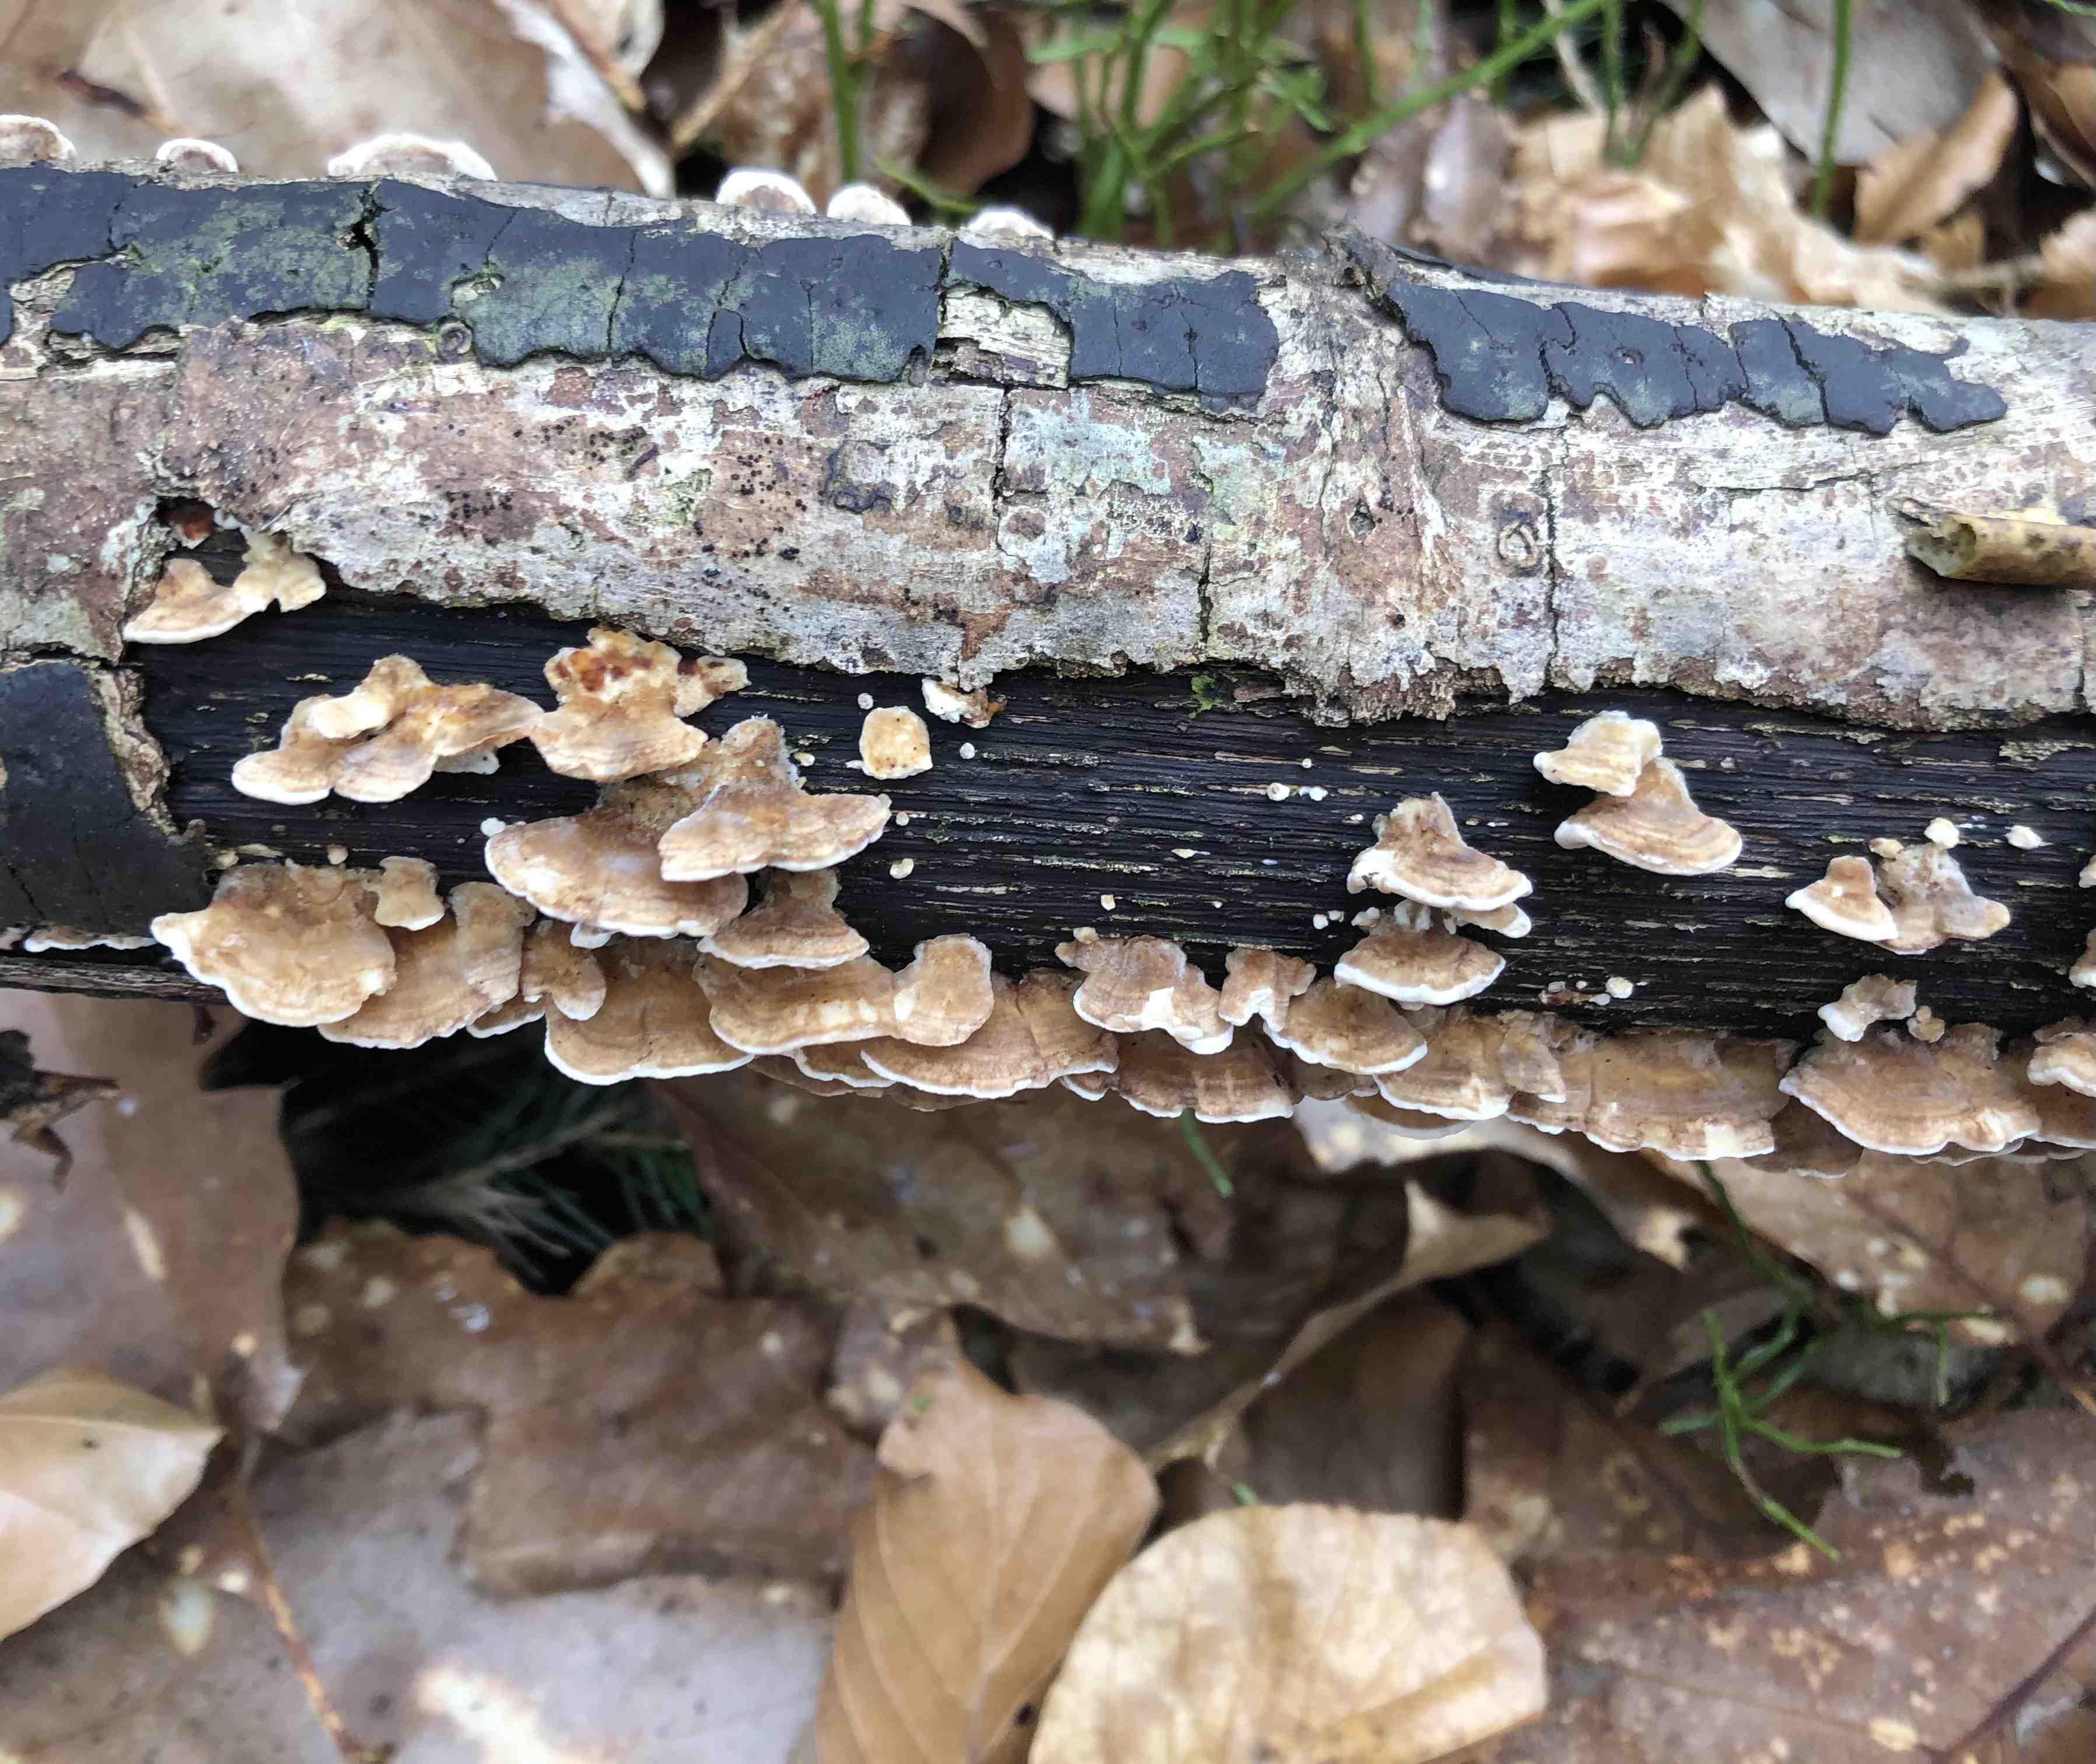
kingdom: Fungi
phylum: Basidiomycota
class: Agaricomycetes
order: Polyporales
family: Polyporaceae
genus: Trametes
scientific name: Trametes ochracea
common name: bæltet læderporesvamp
